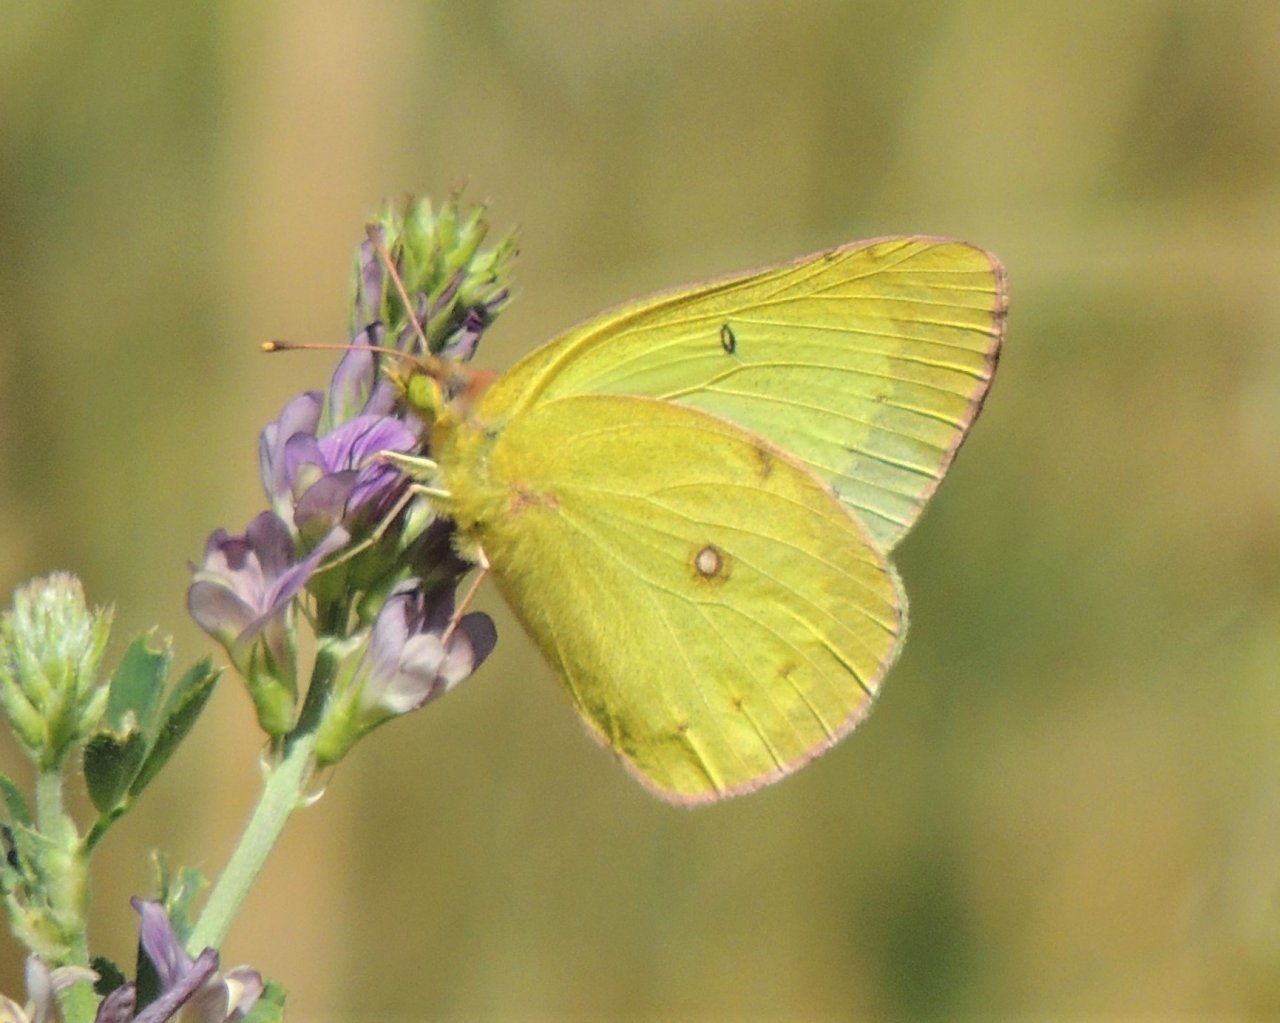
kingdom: Animalia
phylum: Arthropoda
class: Insecta
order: Lepidoptera
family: Pieridae
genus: Colias
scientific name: Colias eurytheme
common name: Orange Sulphur
